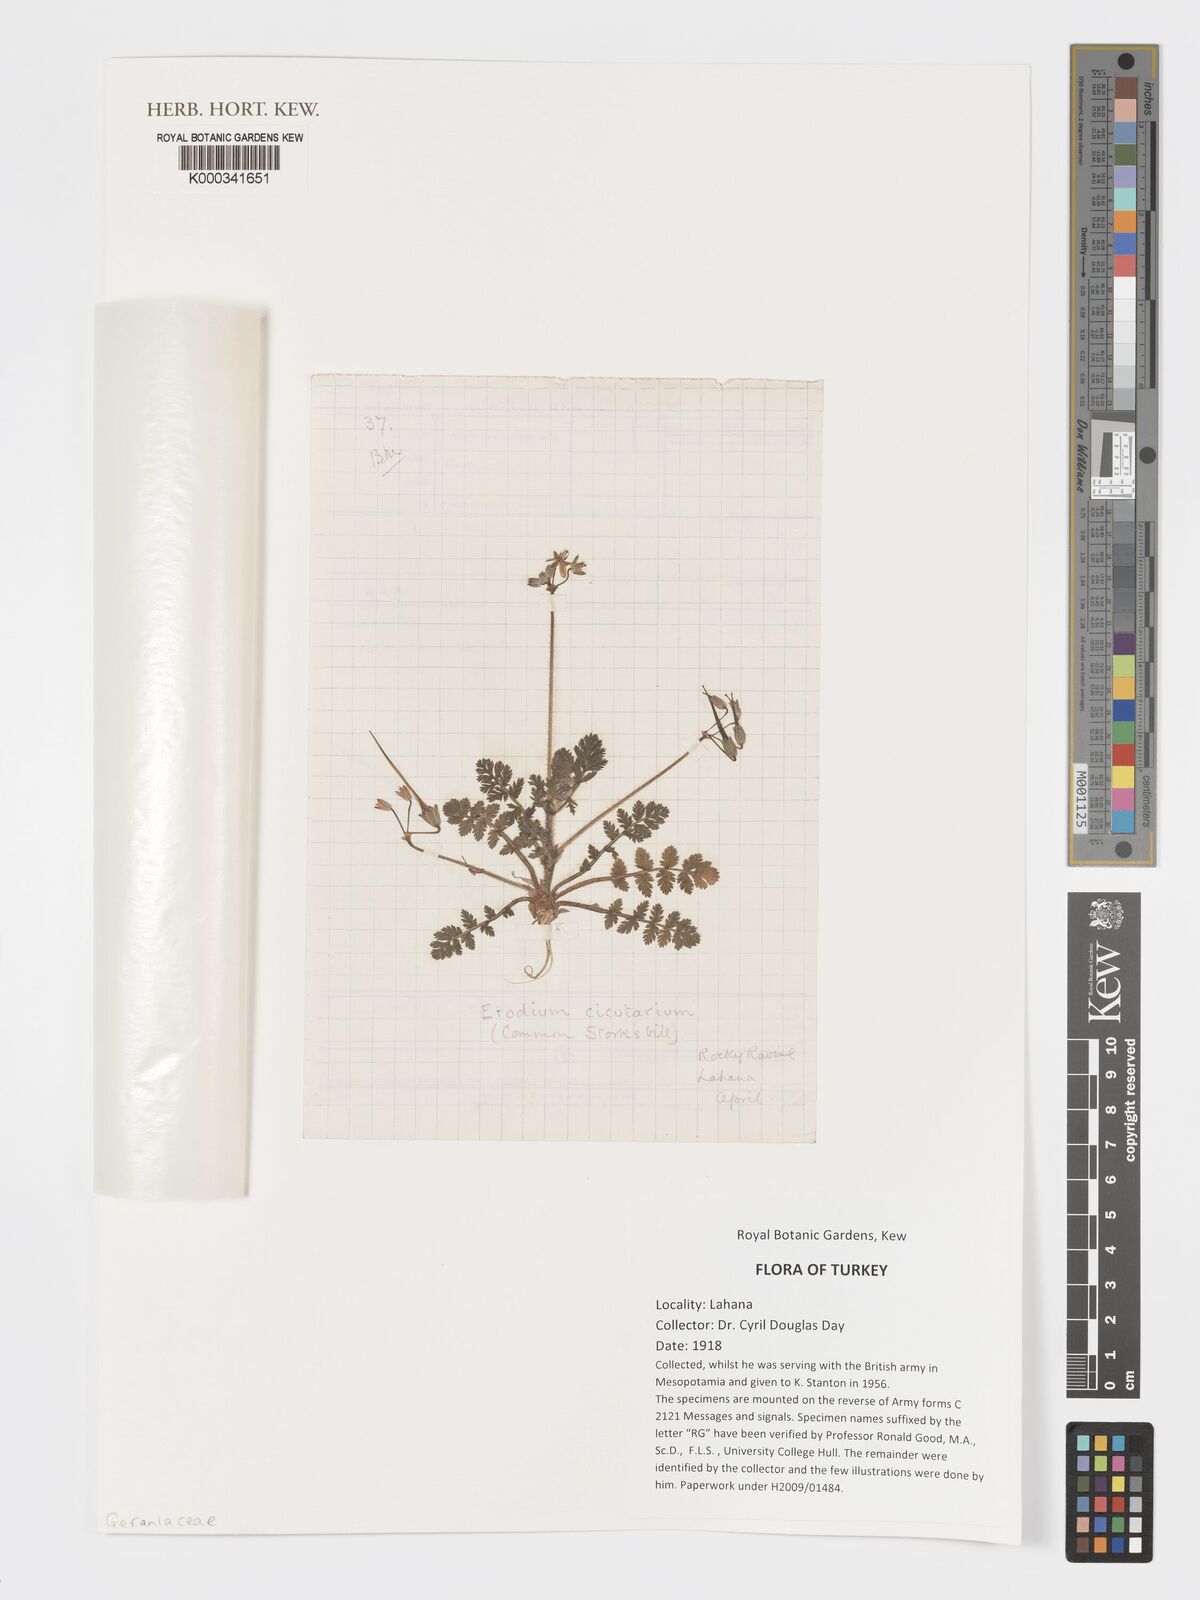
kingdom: Plantae
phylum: Tracheophyta
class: Magnoliopsida
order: Geraniales
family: Geraniaceae
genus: Erodium
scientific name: Erodium
